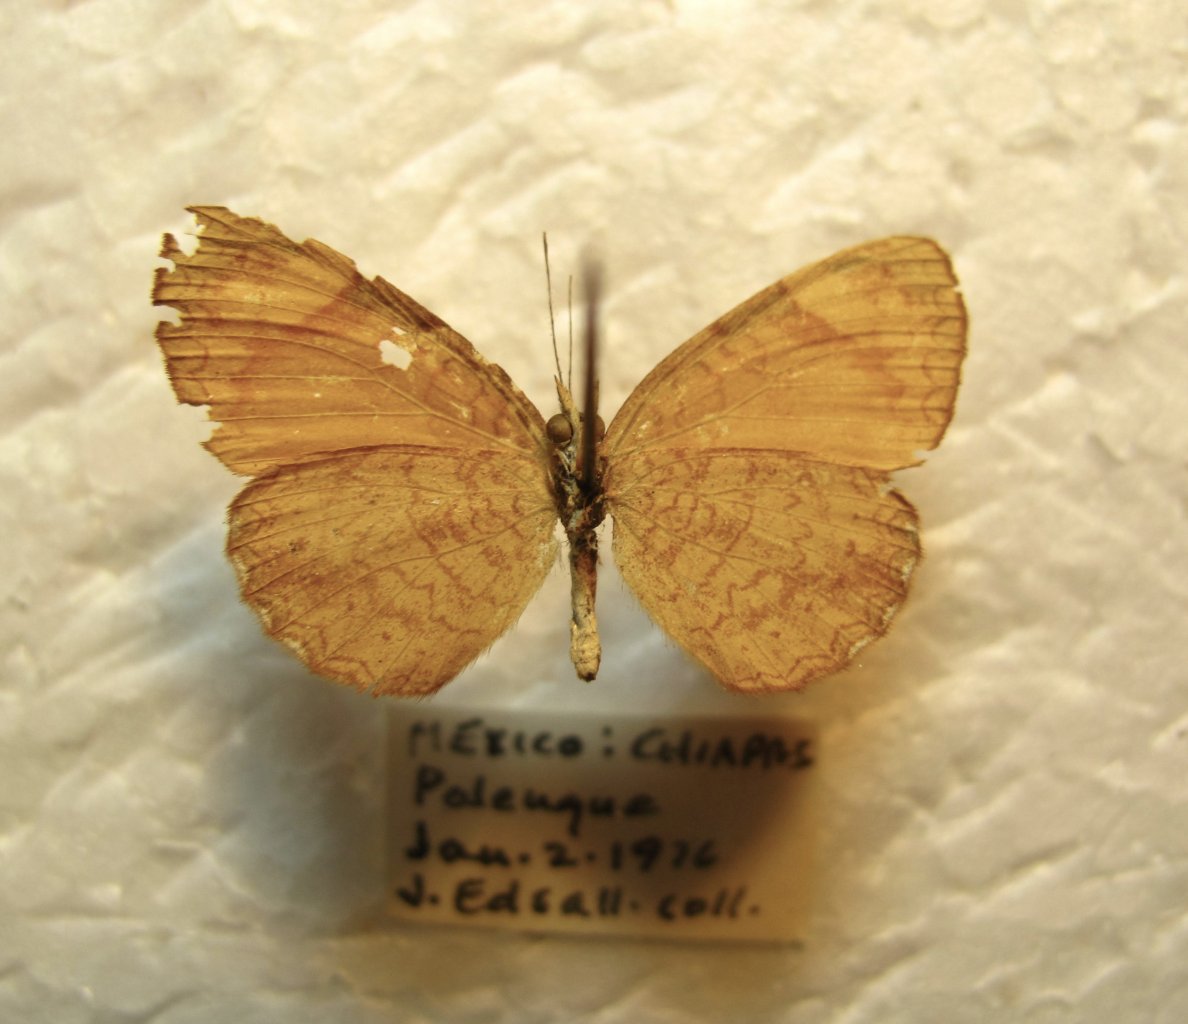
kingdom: Animalia
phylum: Arthropoda
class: Insecta
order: Lepidoptera
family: Nymphalidae
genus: Tegosa
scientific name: Tegosa anieta
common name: Black-bordered Crescent
